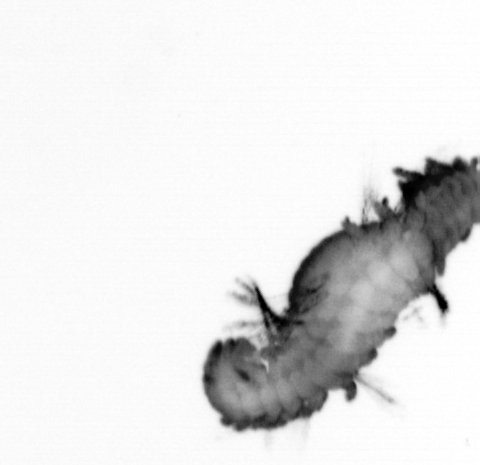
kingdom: Animalia
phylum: Annelida
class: Polychaeta
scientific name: Polychaeta
